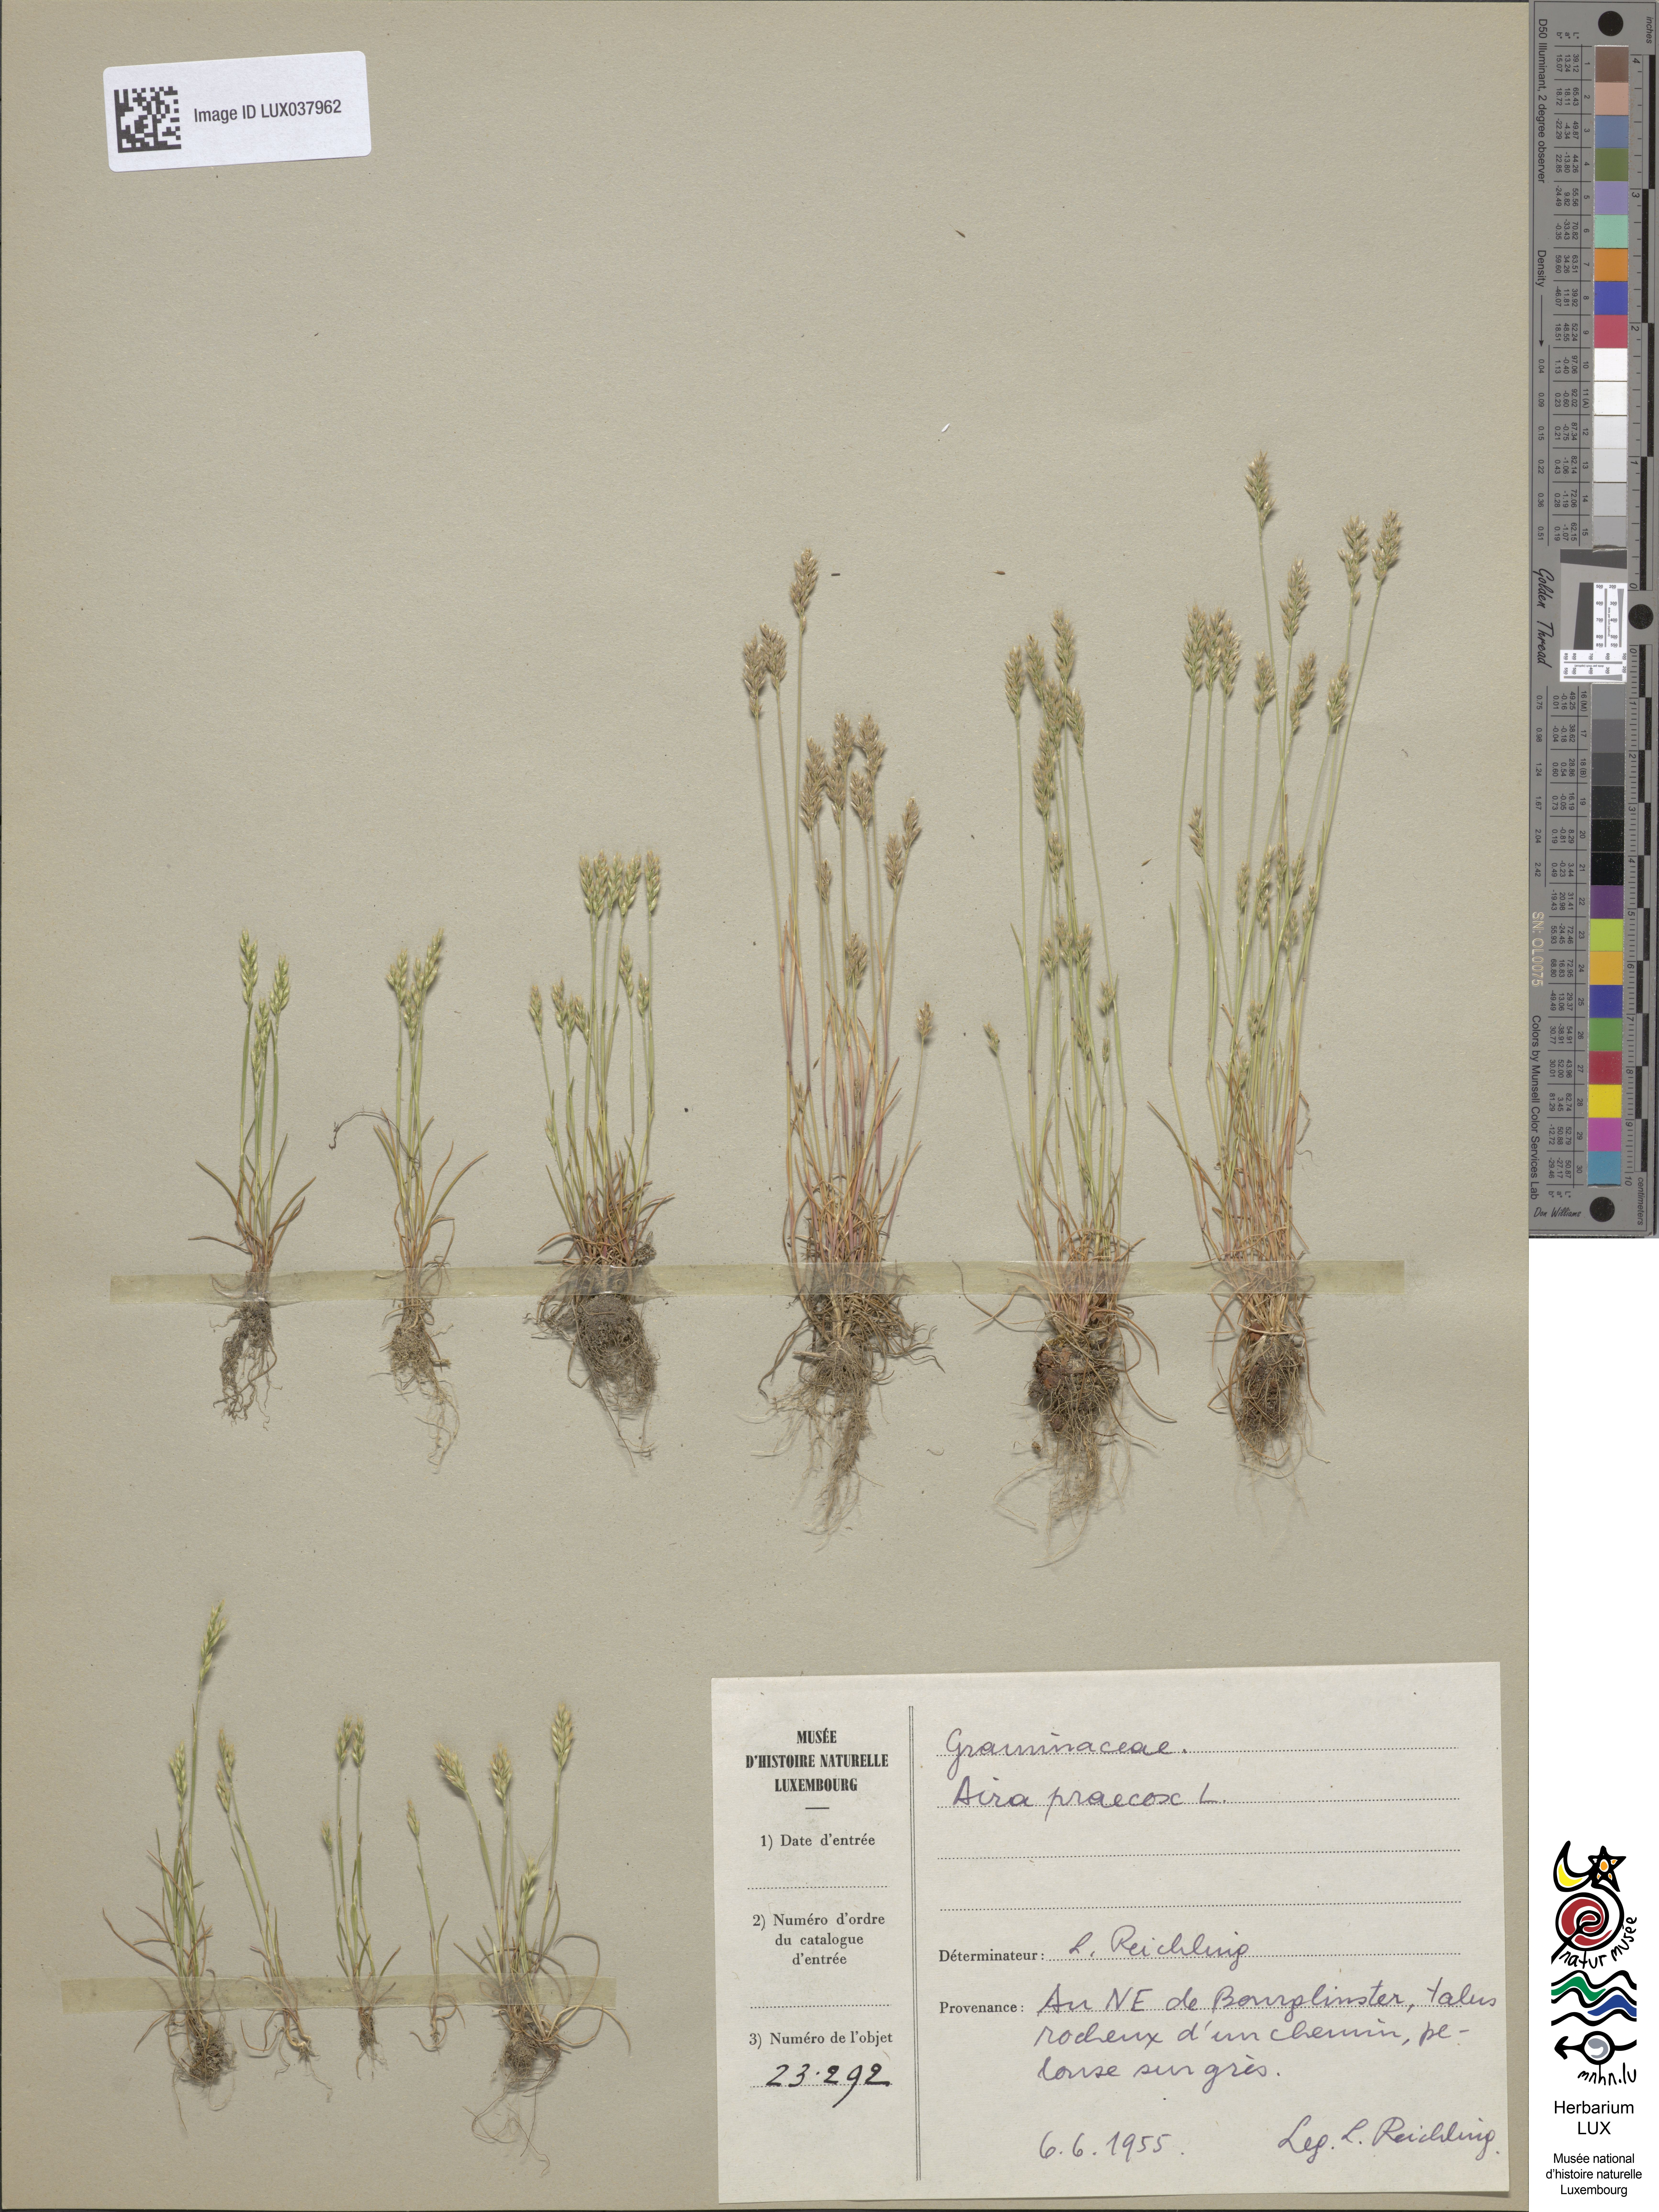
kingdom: Plantae
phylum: Tracheophyta
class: Liliopsida
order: Poales
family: Poaceae
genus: Aira
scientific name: Aira praecox
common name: Early hair-grass
